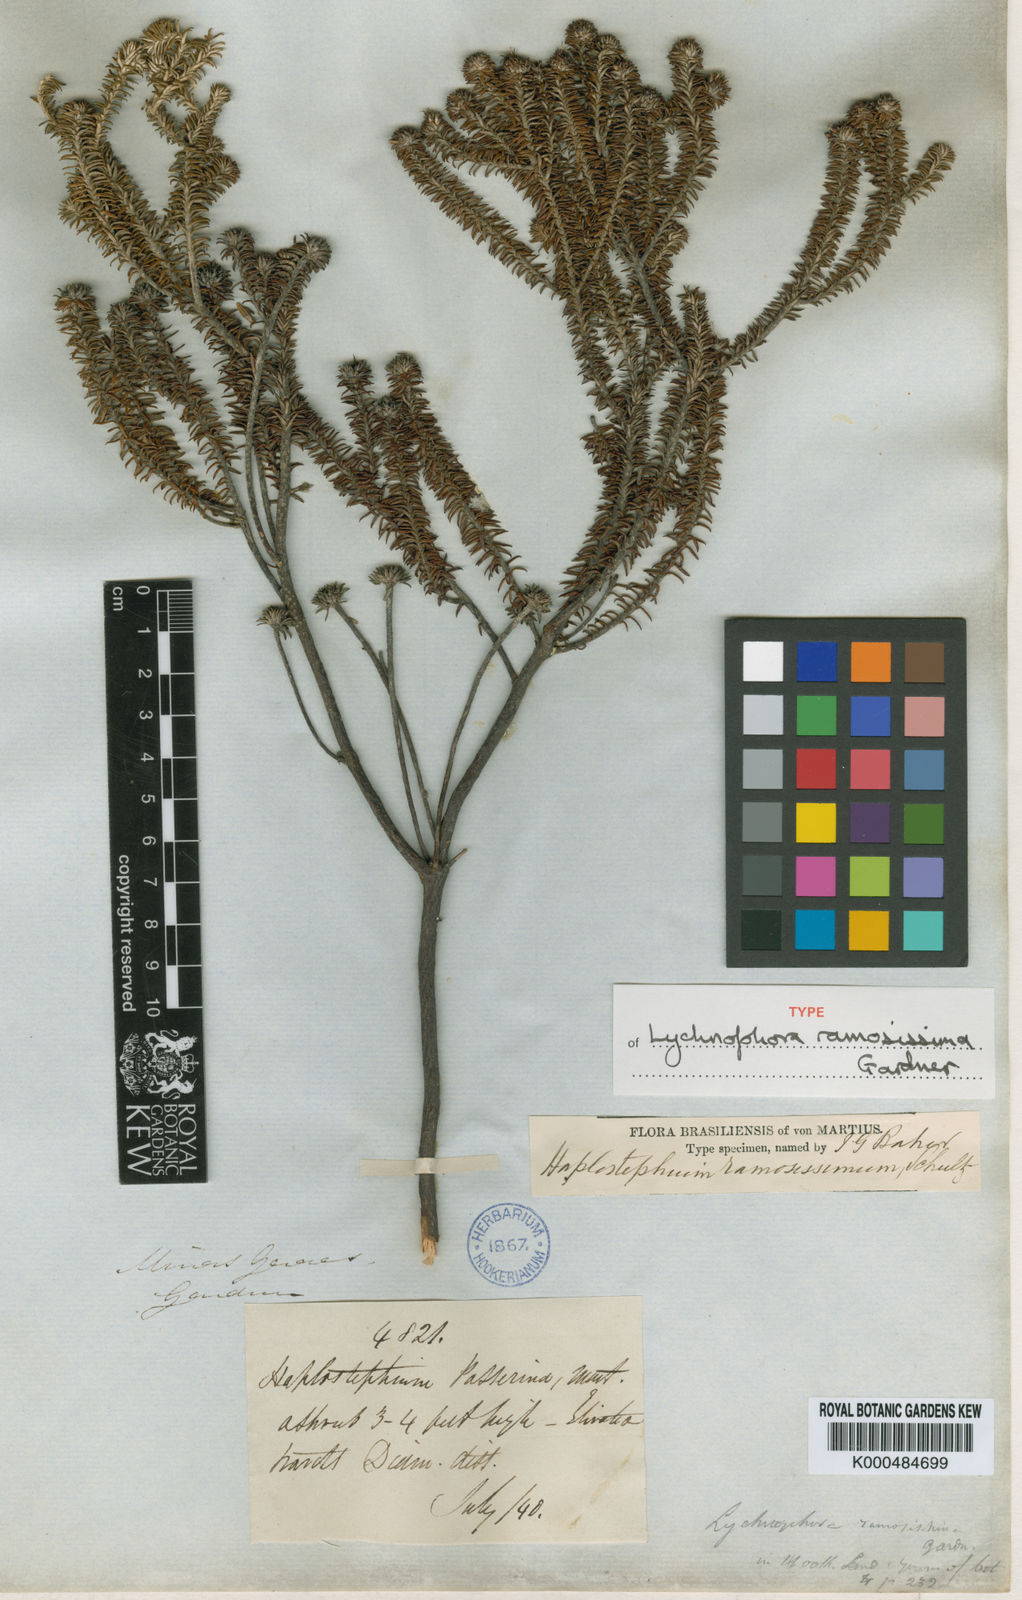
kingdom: Plantae
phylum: Tracheophyta
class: Magnoliopsida
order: Asterales
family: Asteraceae
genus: Lychnophora
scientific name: Lychnophora ramosissima
